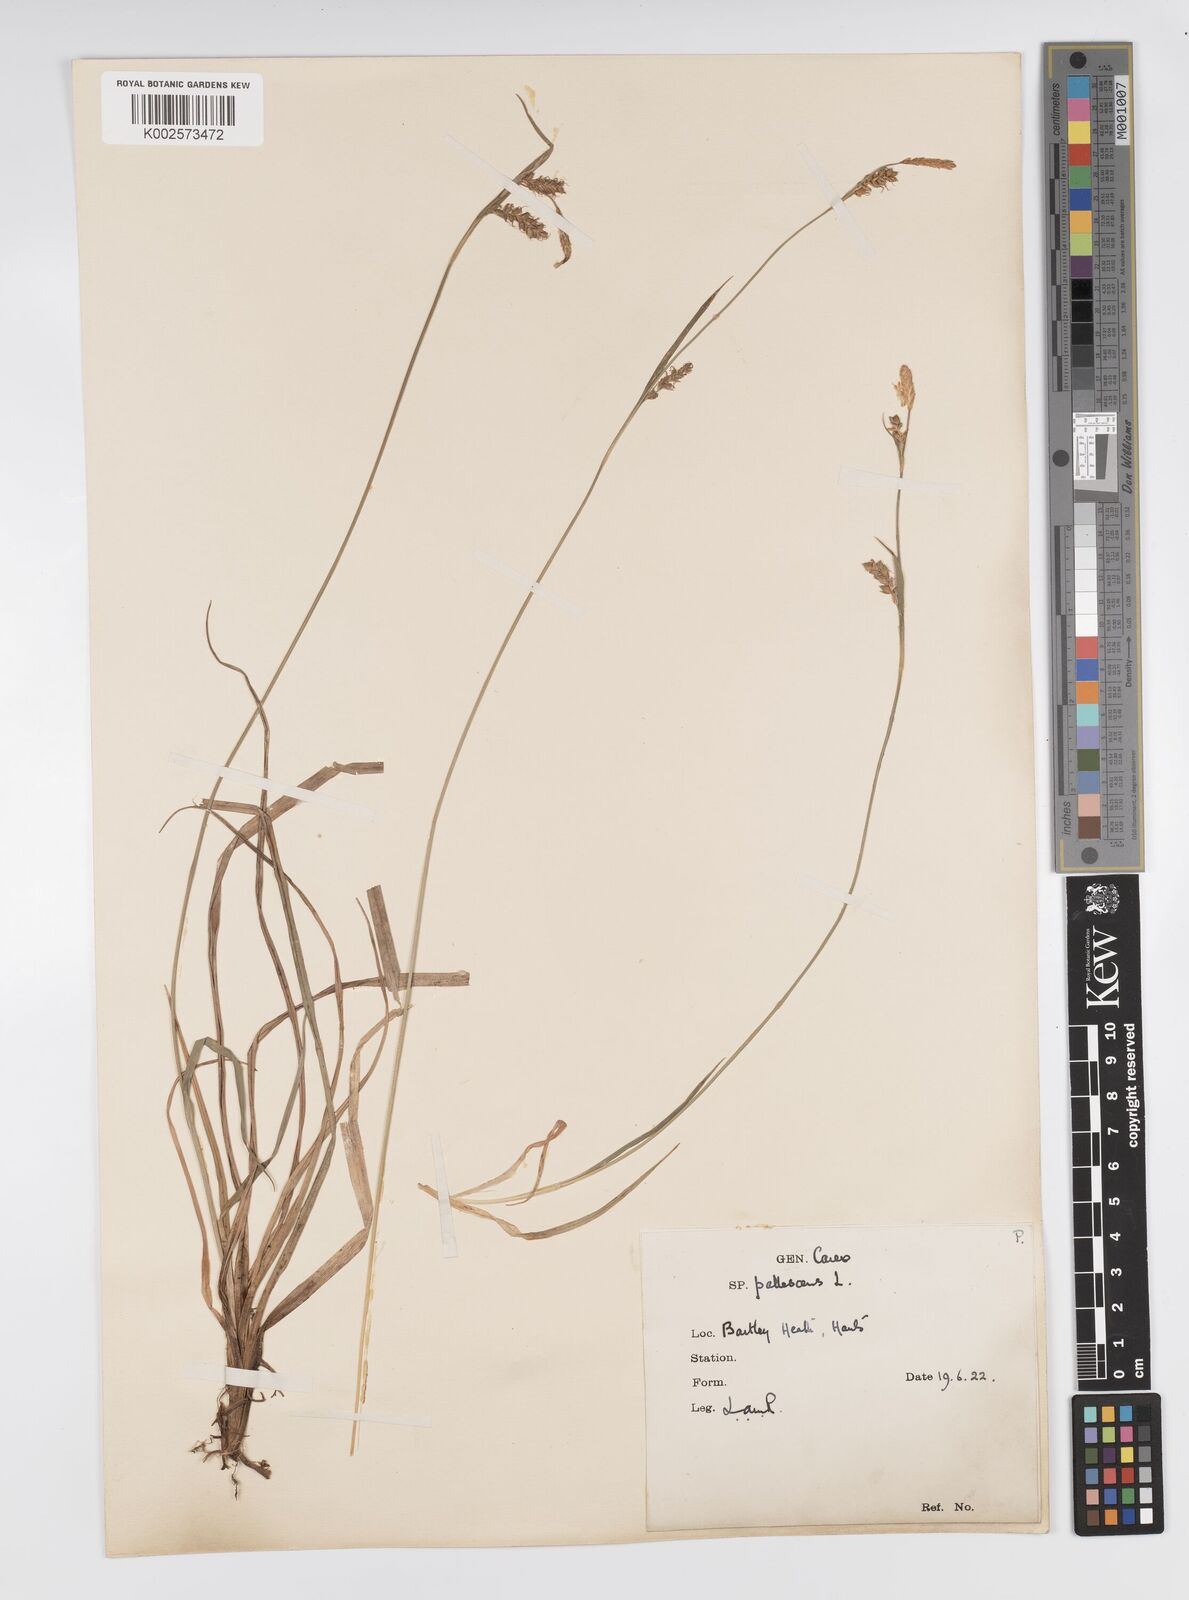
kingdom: Plantae
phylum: Tracheophyta
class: Liliopsida
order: Poales
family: Cyperaceae
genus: Carex
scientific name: Carex panicea
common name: Carnation sedge
